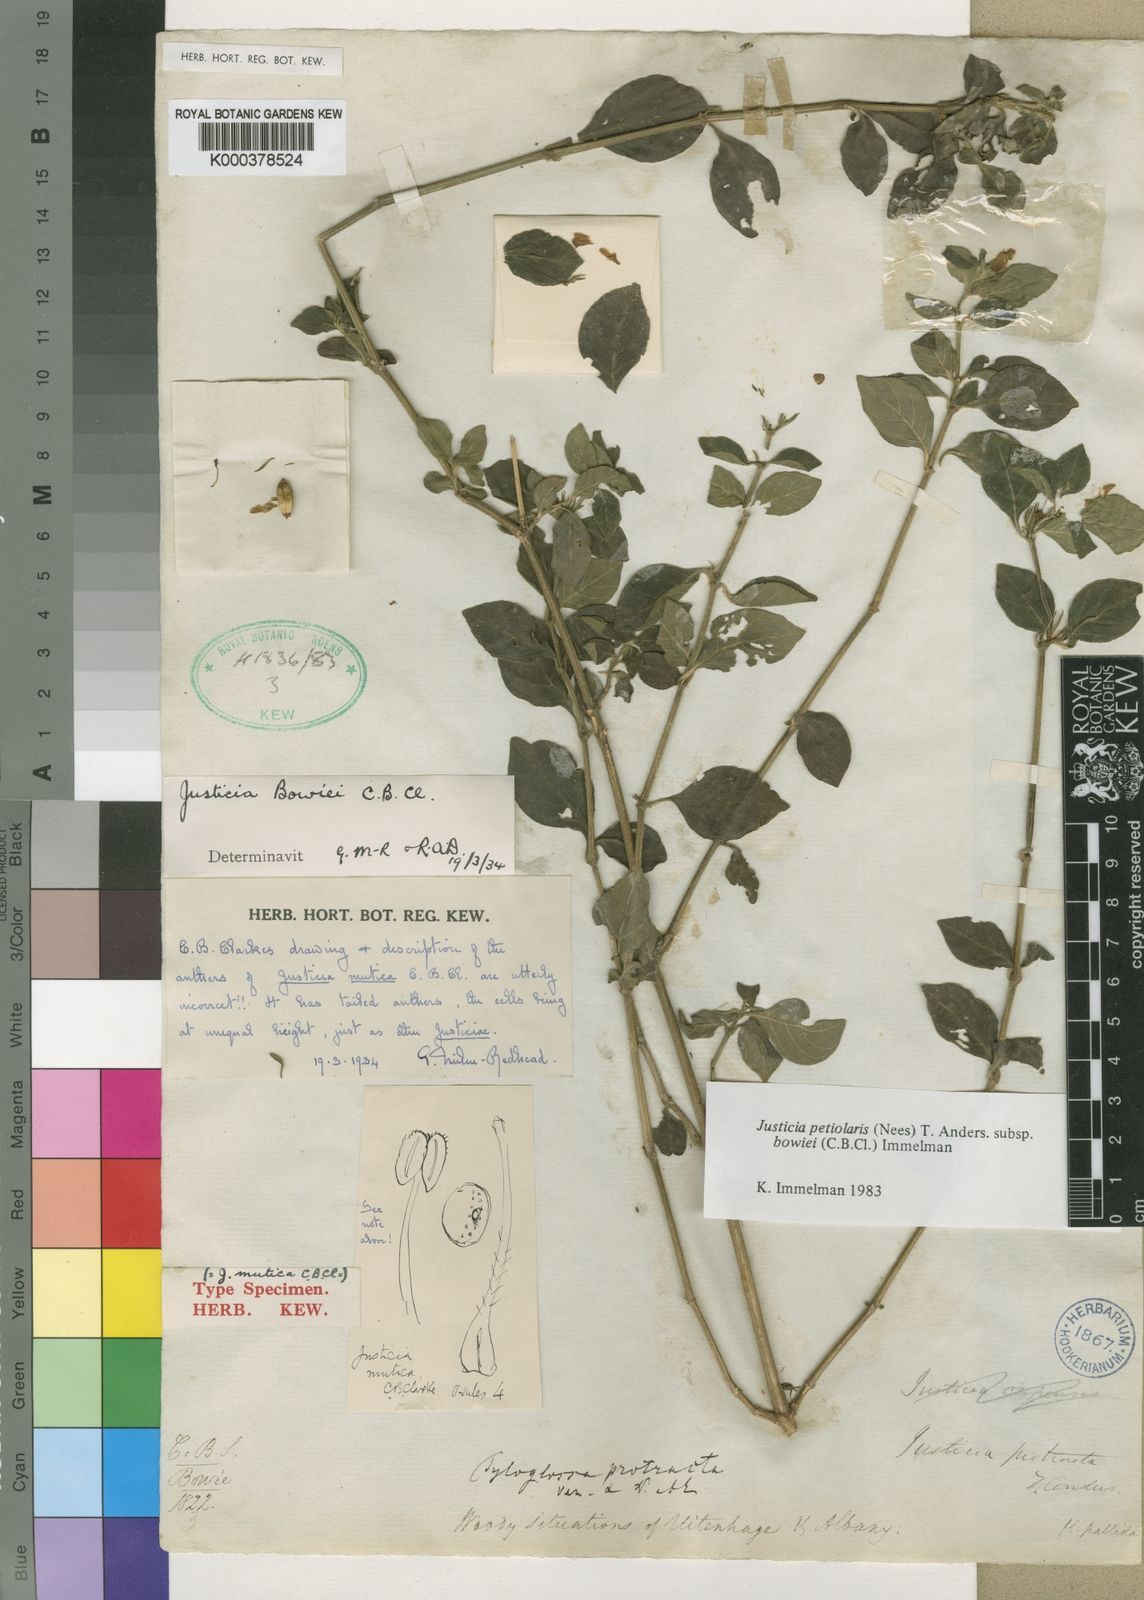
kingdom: Plantae
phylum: Tracheophyta
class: Magnoliopsida
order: Lamiales
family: Acanthaceae
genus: Justicia
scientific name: Justicia petiolaris
